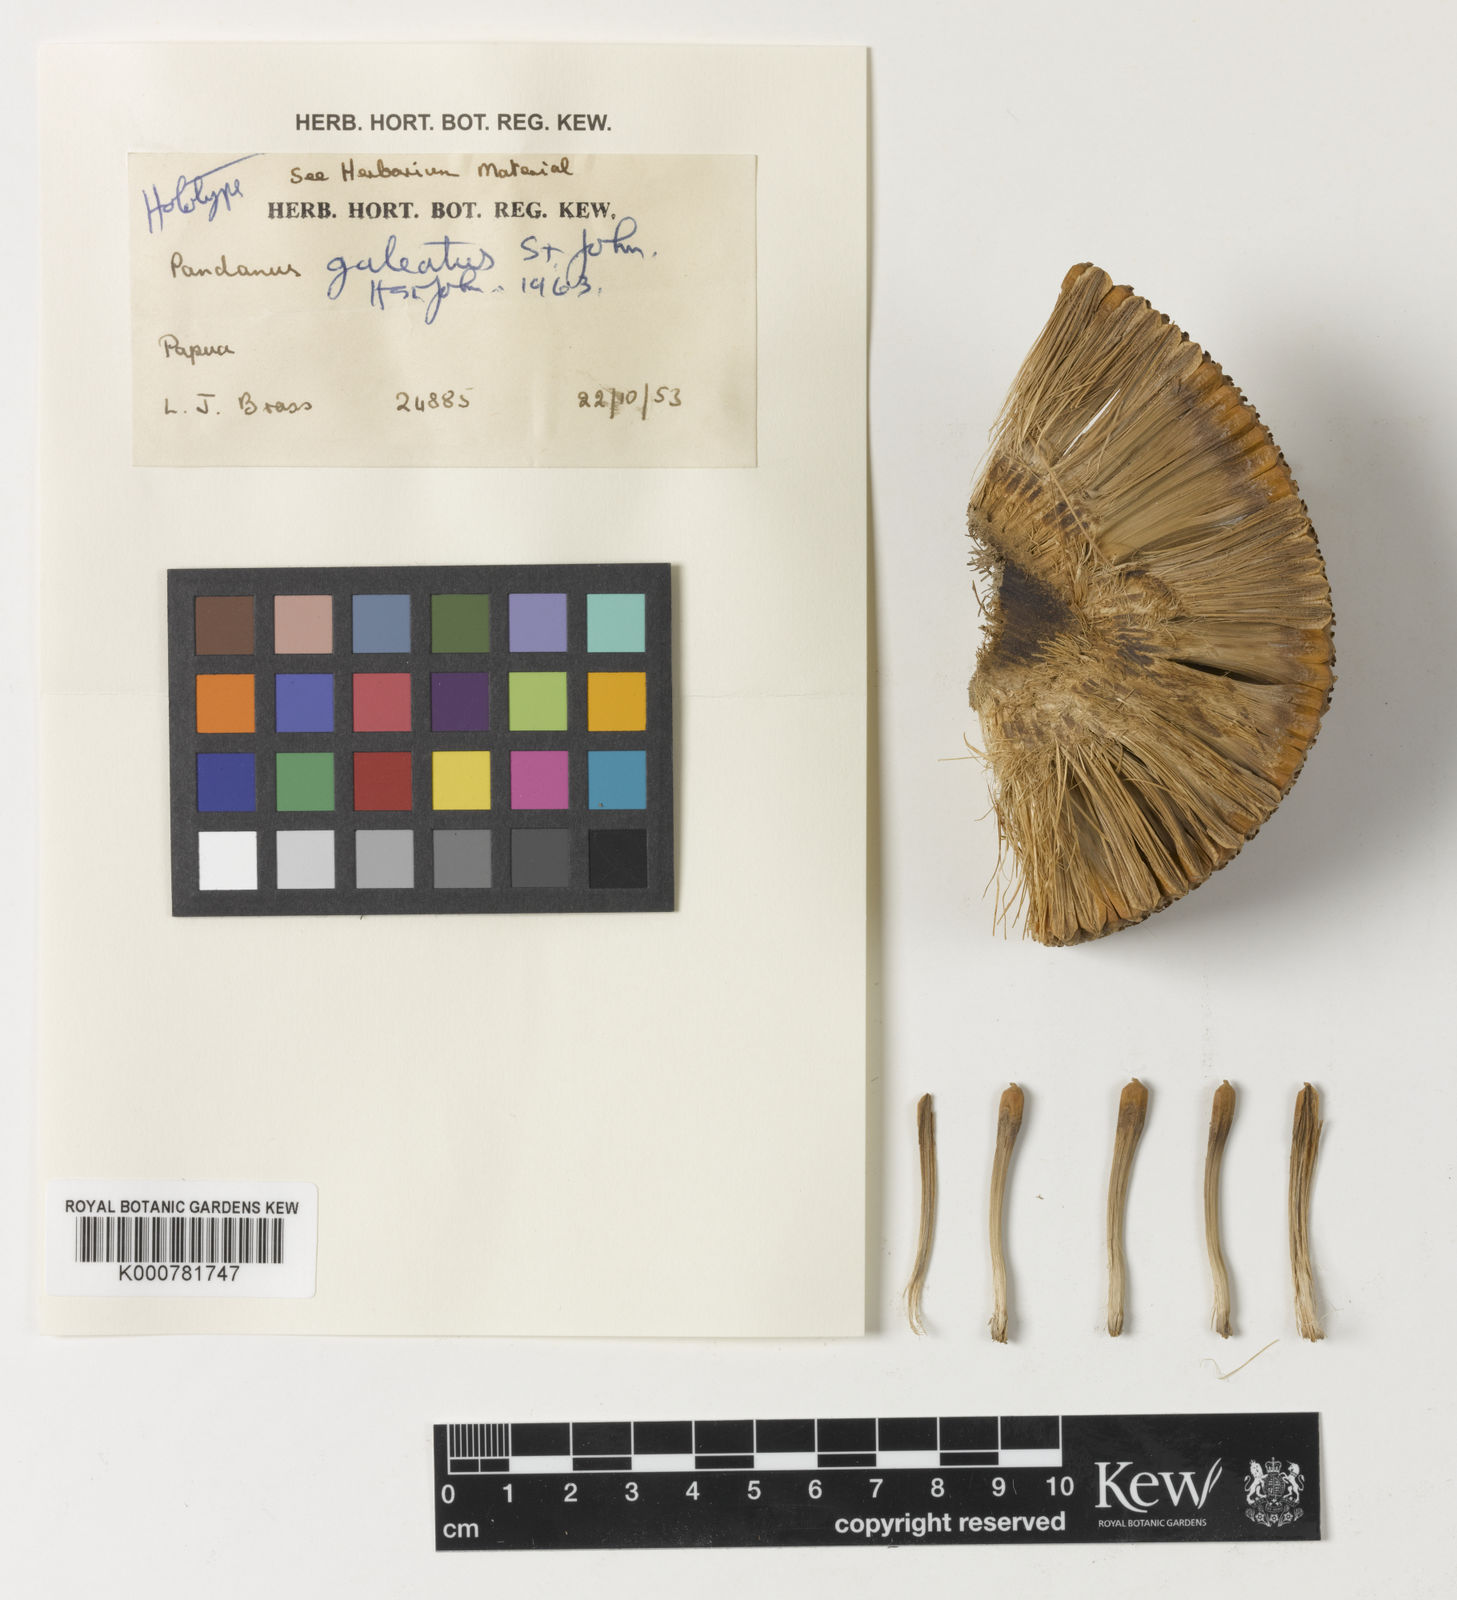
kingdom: Plantae
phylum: Tracheophyta
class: Liliopsida
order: Pandanales
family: Pandanaceae
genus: Pandanus
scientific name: Pandanus galeatus
